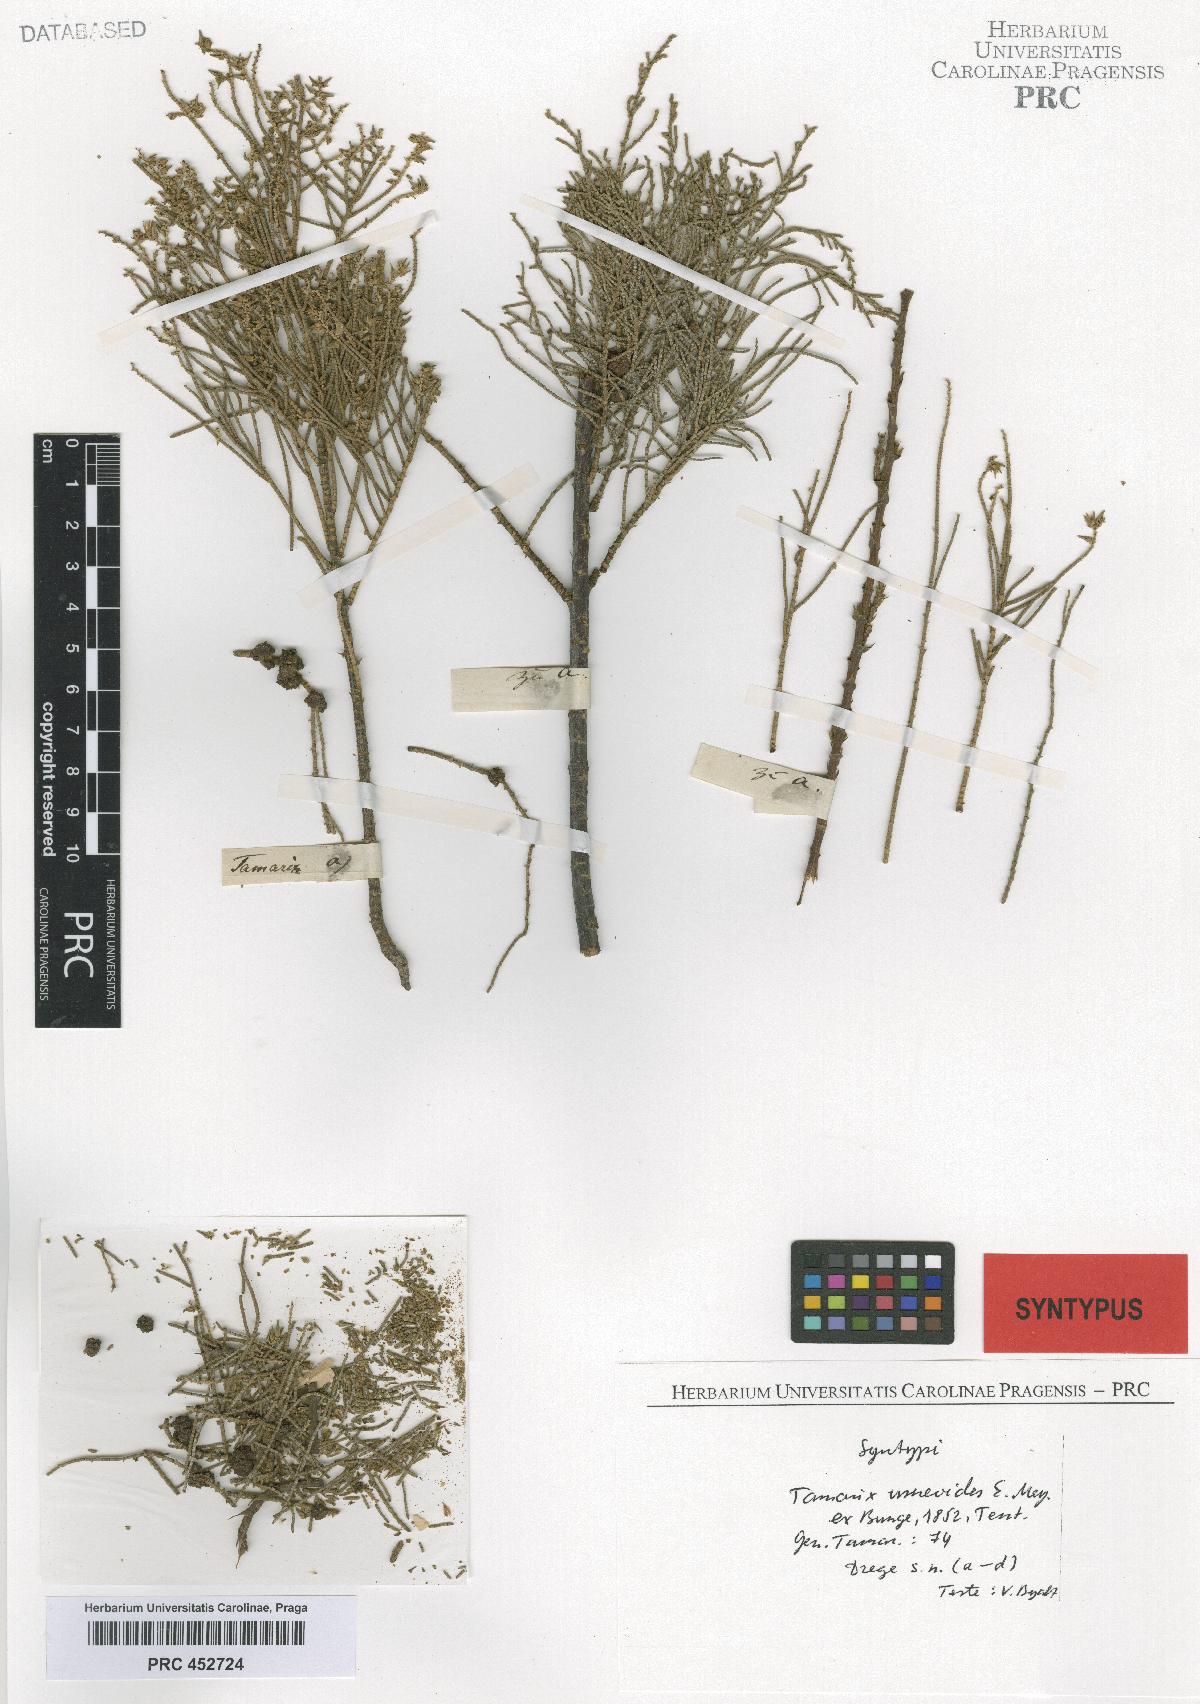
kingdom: Plantae
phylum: Tracheophyta
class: Magnoliopsida
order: Caryophyllales
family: Tamaricaceae
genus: Tamarix
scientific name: Tamarix usneoides
